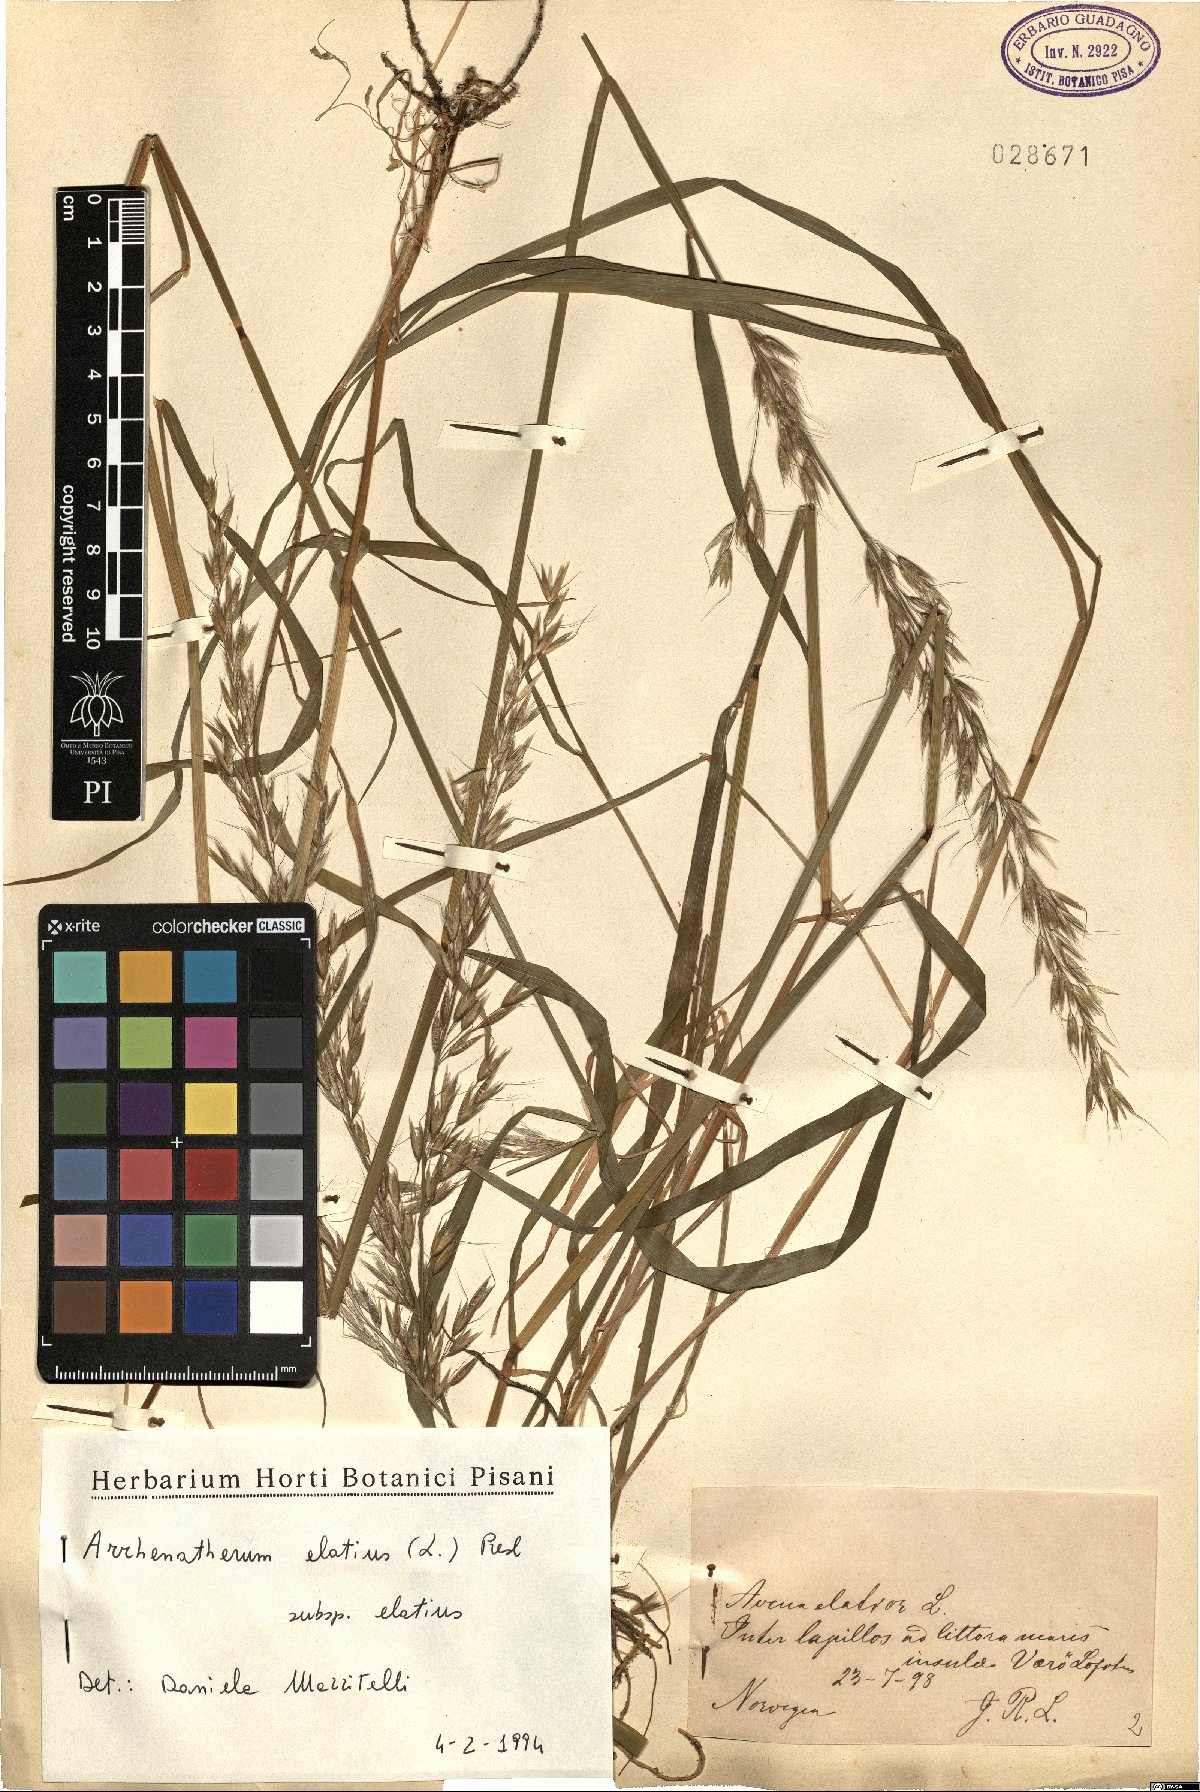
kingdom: Plantae
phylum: Tracheophyta
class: Liliopsida
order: Poales
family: Poaceae
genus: Arrhenatherum
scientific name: Arrhenatherum elatius
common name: Tall oatgrass
